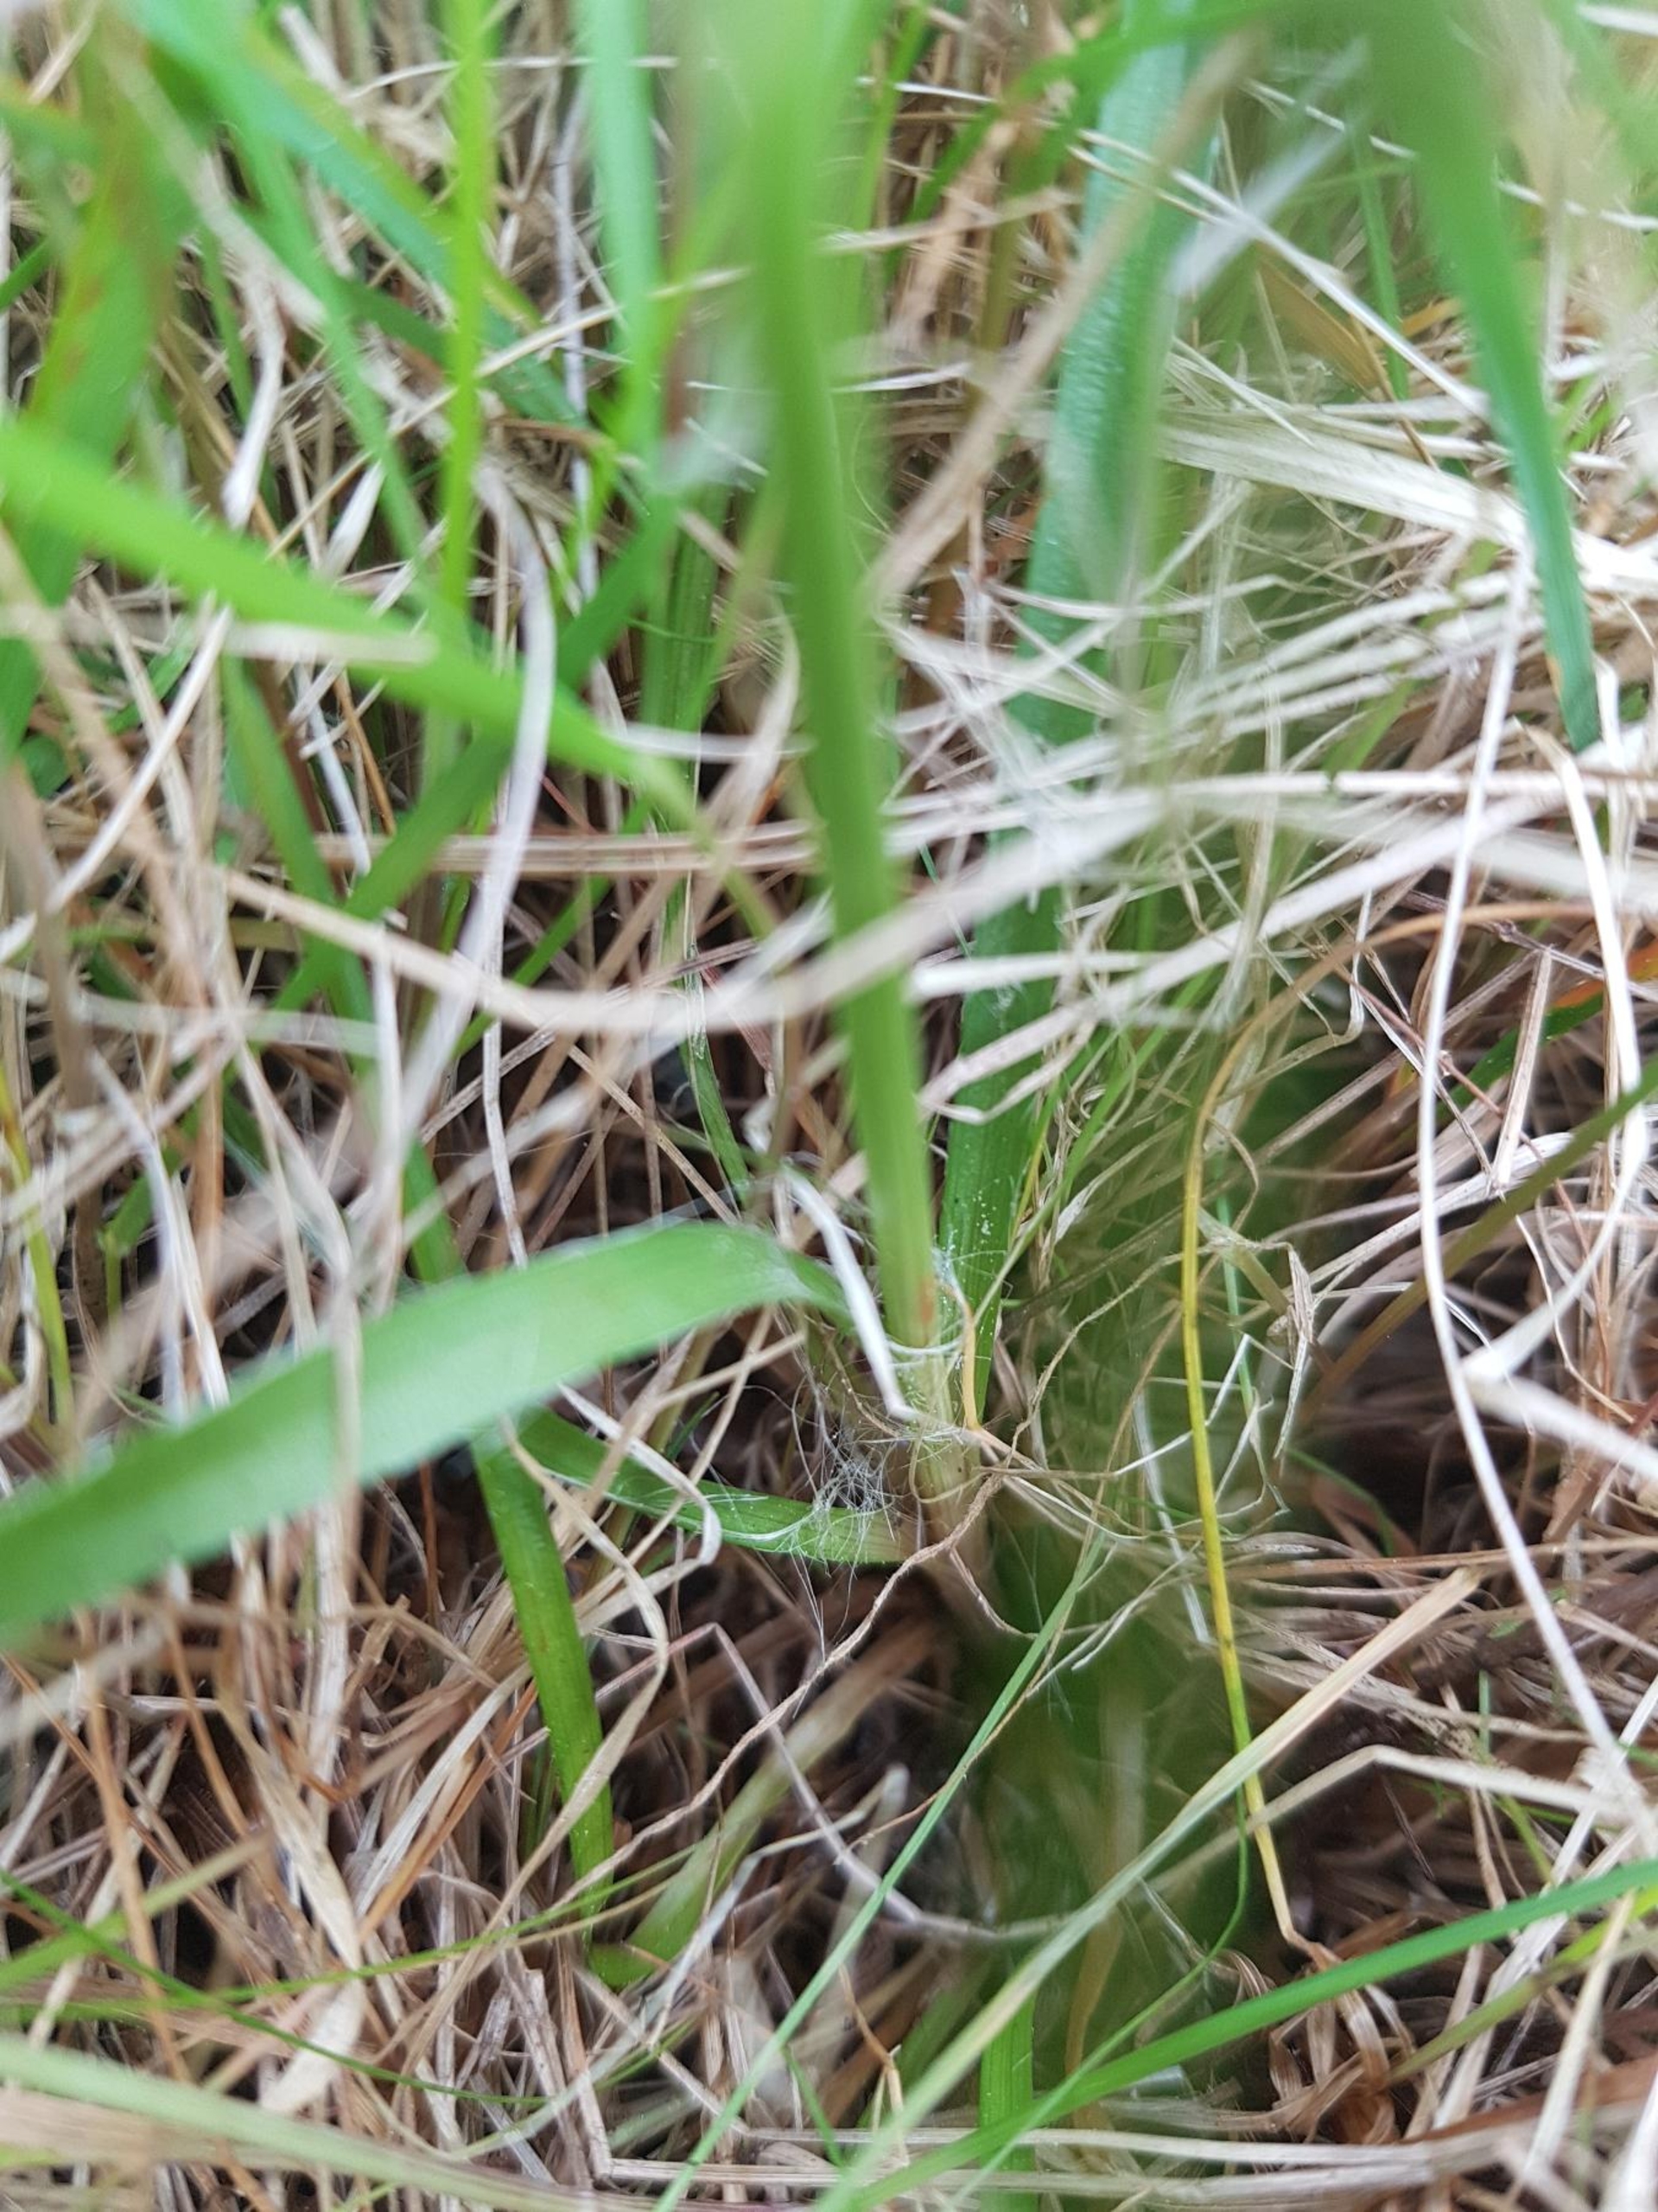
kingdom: Plantae
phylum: Tracheophyta
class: Liliopsida
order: Poales
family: Juncaceae
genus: Luzula
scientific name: Luzula campestris
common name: Mark-frytle
